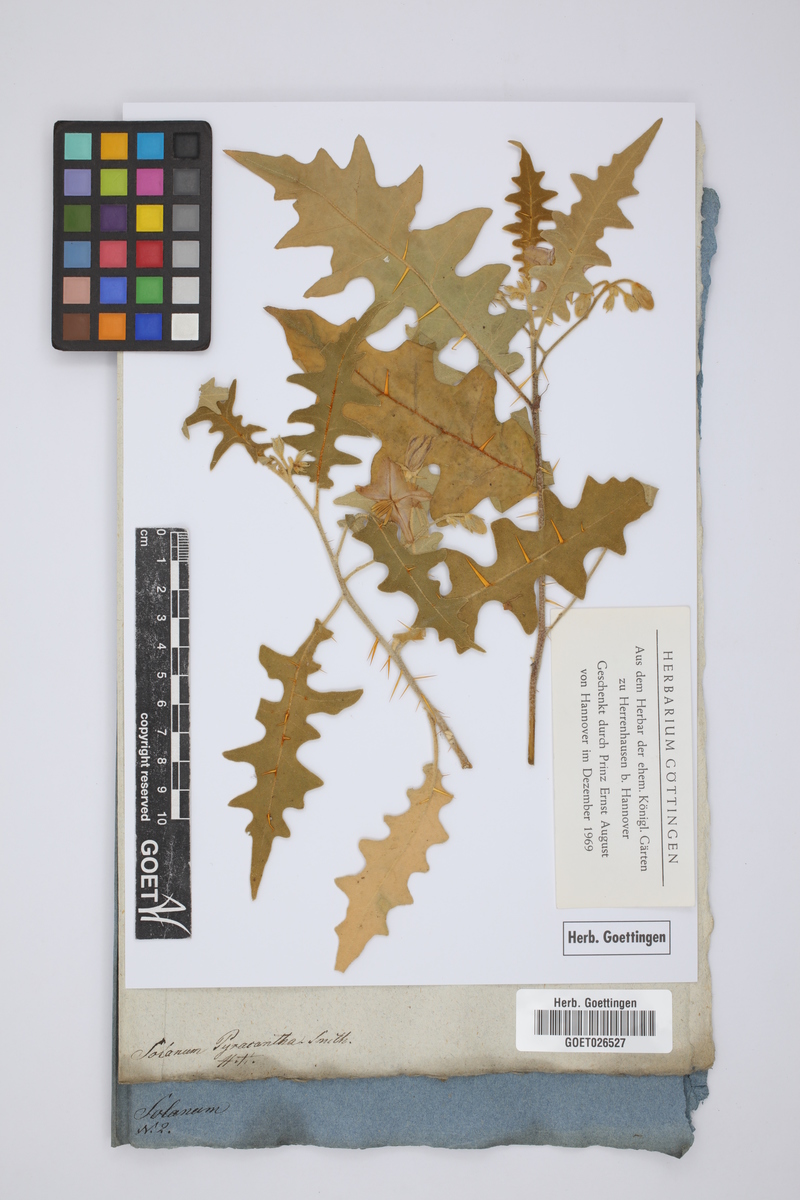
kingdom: Plantae
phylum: Tracheophyta
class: Magnoliopsida
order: Solanales
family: Solanaceae
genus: Solanum
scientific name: Solanum pyracanthos
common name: Porcupine-tomato
